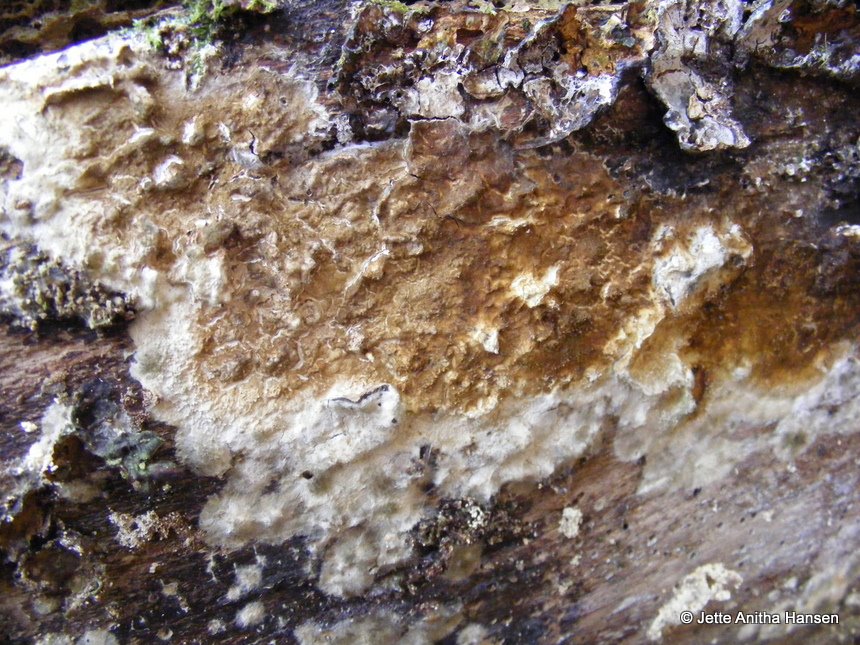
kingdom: Fungi
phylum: Basidiomycota
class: Agaricomycetes
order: Boletales
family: Coniophoraceae
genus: Coniophora
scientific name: Coniophora puteana
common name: gul tømmersvamp
